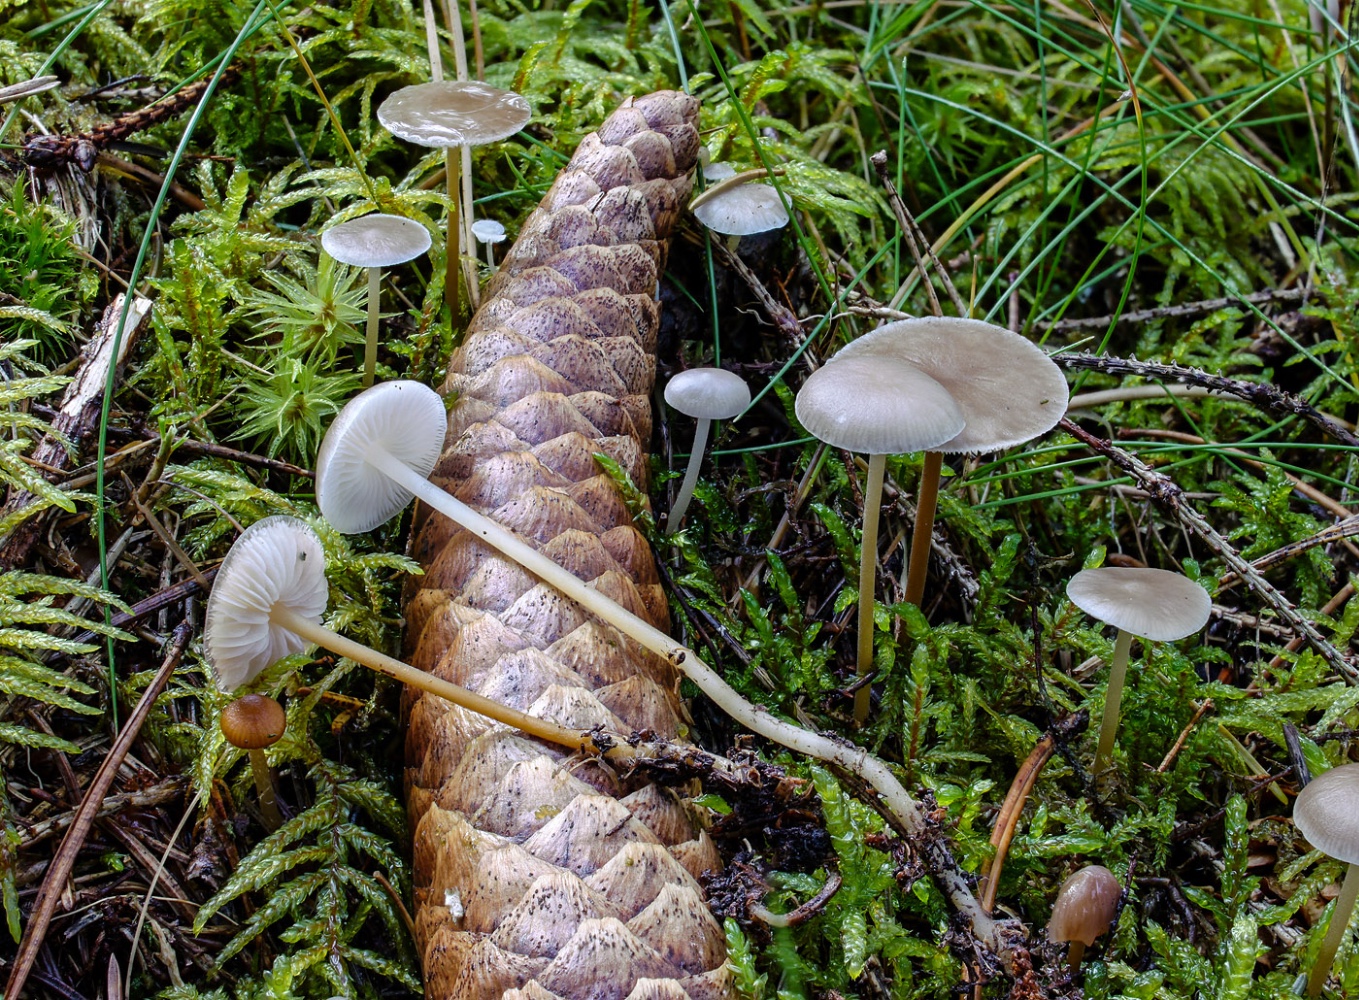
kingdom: Fungi
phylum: Basidiomycota
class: Agaricomycetes
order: Agaricales
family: Physalacriaceae
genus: Strobilurus
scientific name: Strobilurus esculentus
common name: gran-koglehat
